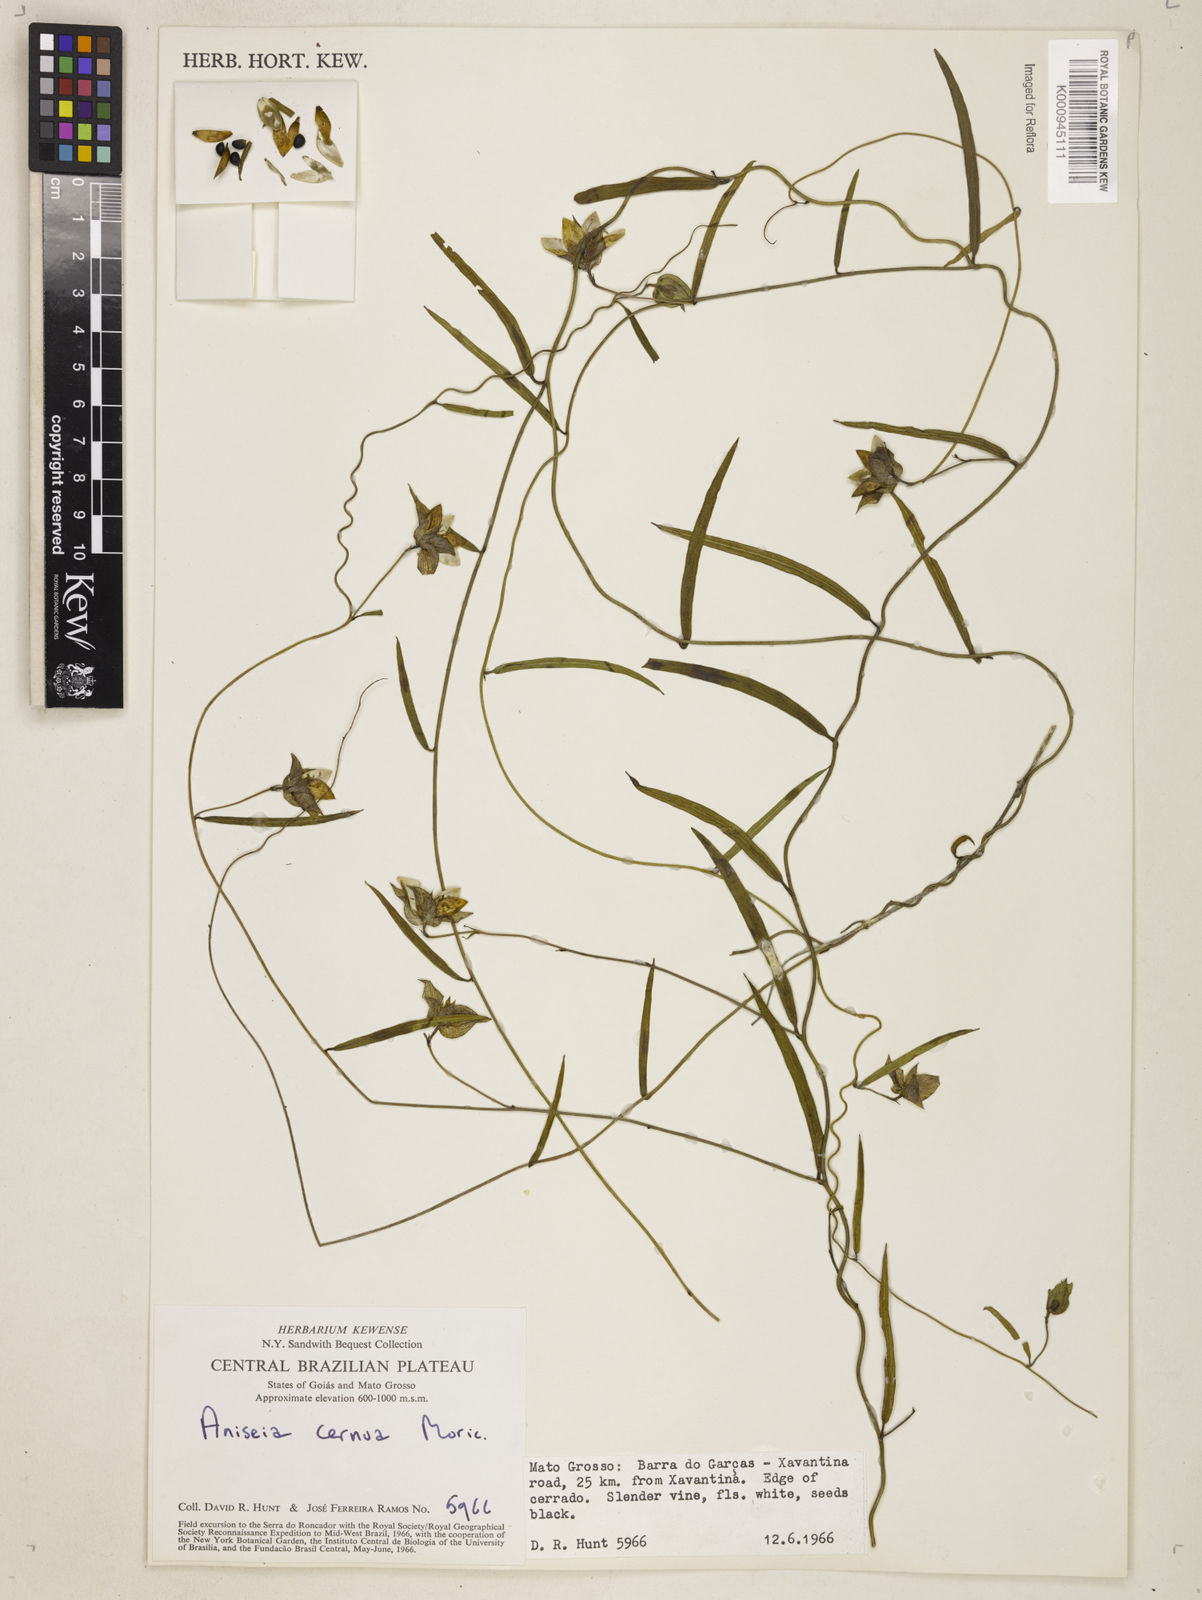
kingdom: Plantae
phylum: Tracheophyta
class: Magnoliopsida
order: Solanales
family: Convolvulaceae
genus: Aniseia
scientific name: Aniseia
